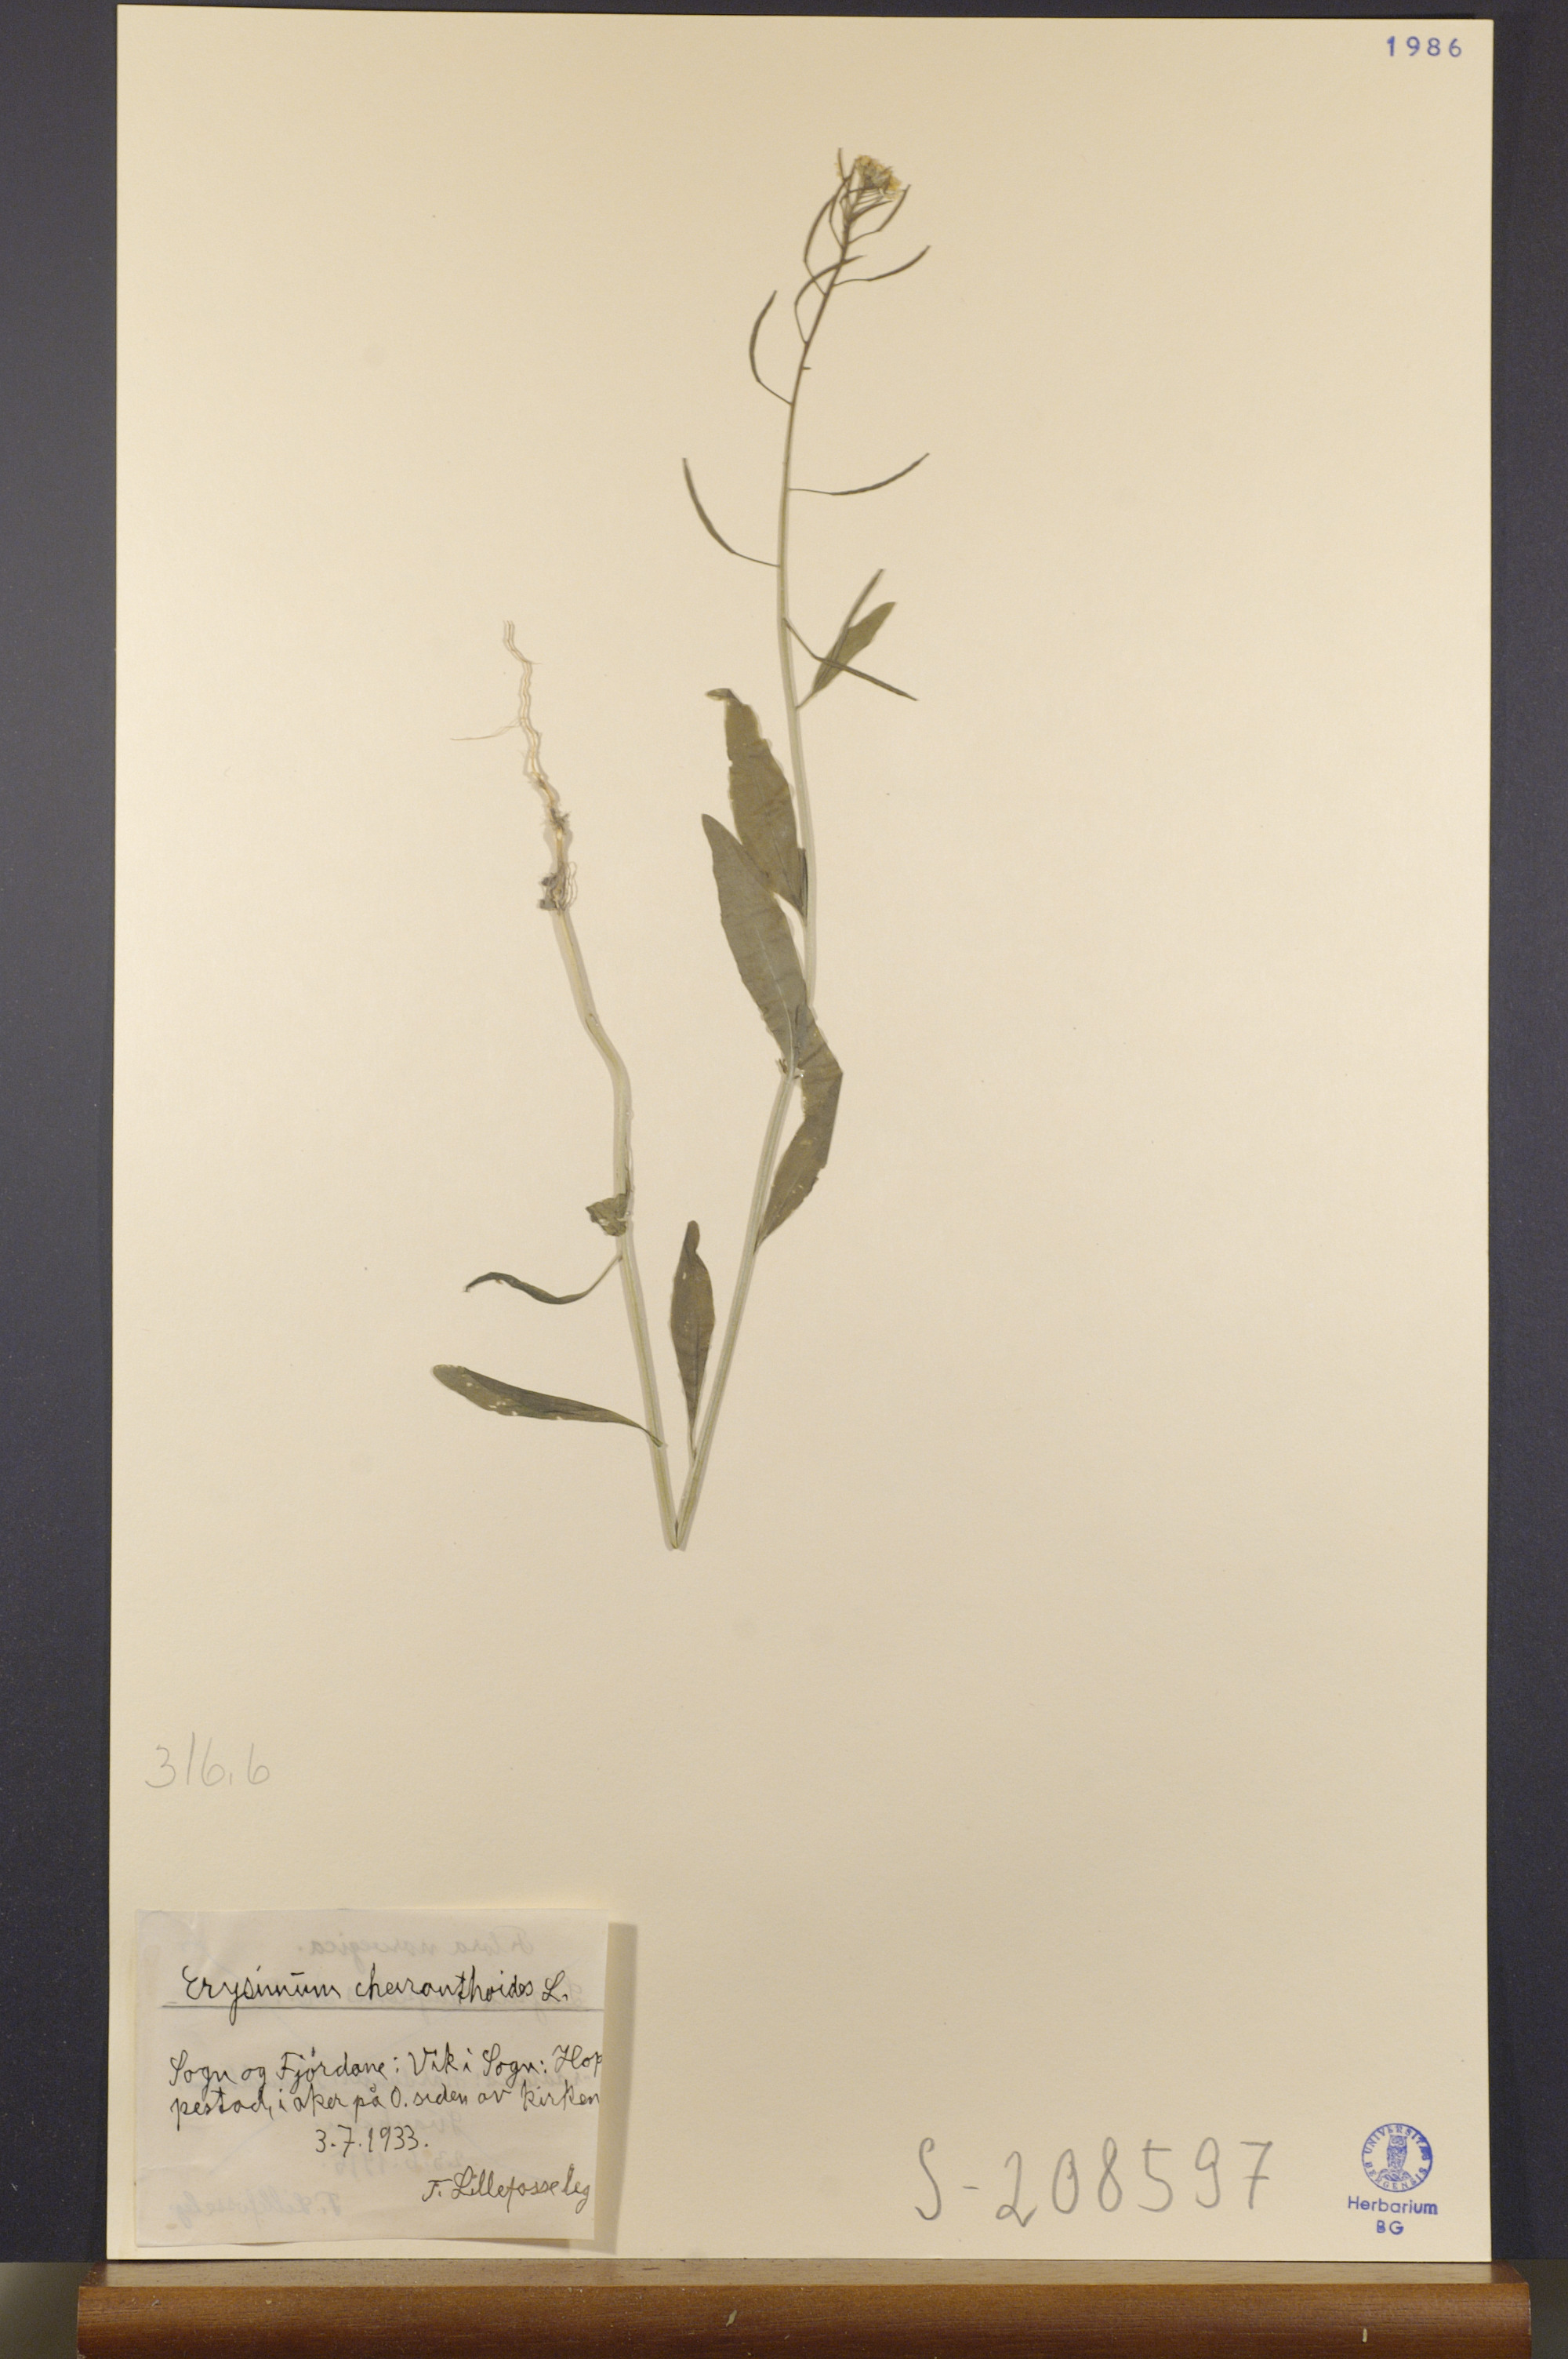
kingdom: Plantae
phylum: Tracheophyta
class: Magnoliopsida
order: Brassicales
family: Brassicaceae
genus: Erysimum
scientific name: Erysimum cheiranthoides
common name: Treacle mustard
